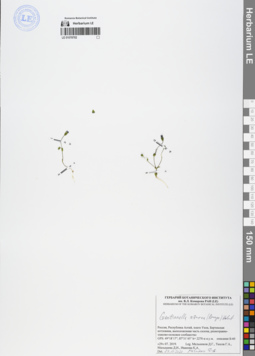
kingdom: Plantae
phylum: Tracheophyta
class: Magnoliopsida
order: Gentianales
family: Gentianaceae
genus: Gentianella
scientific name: Gentianella azurea
